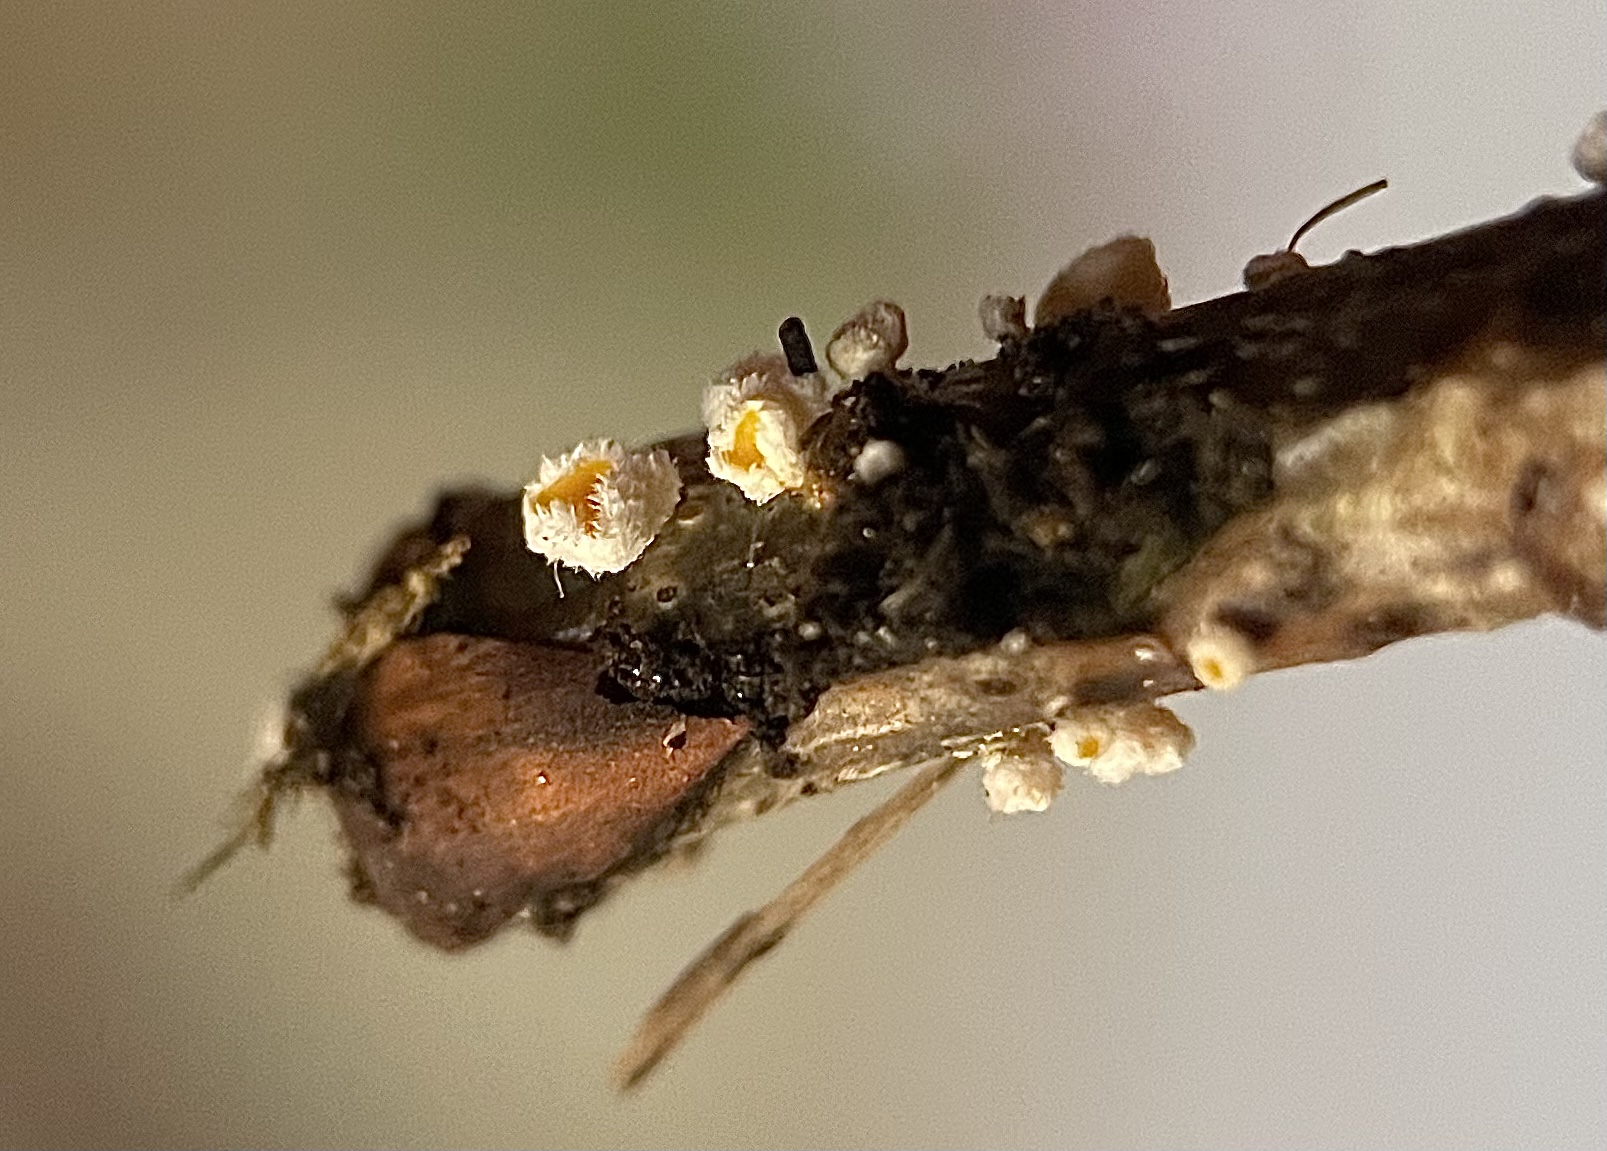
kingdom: Fungi
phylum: Ascomycota
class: Leotiomycetes
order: Helotiales
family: Lachnaceae
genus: Capitotricha
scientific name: Capitotricha bicolor
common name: prægtig frynseskive
